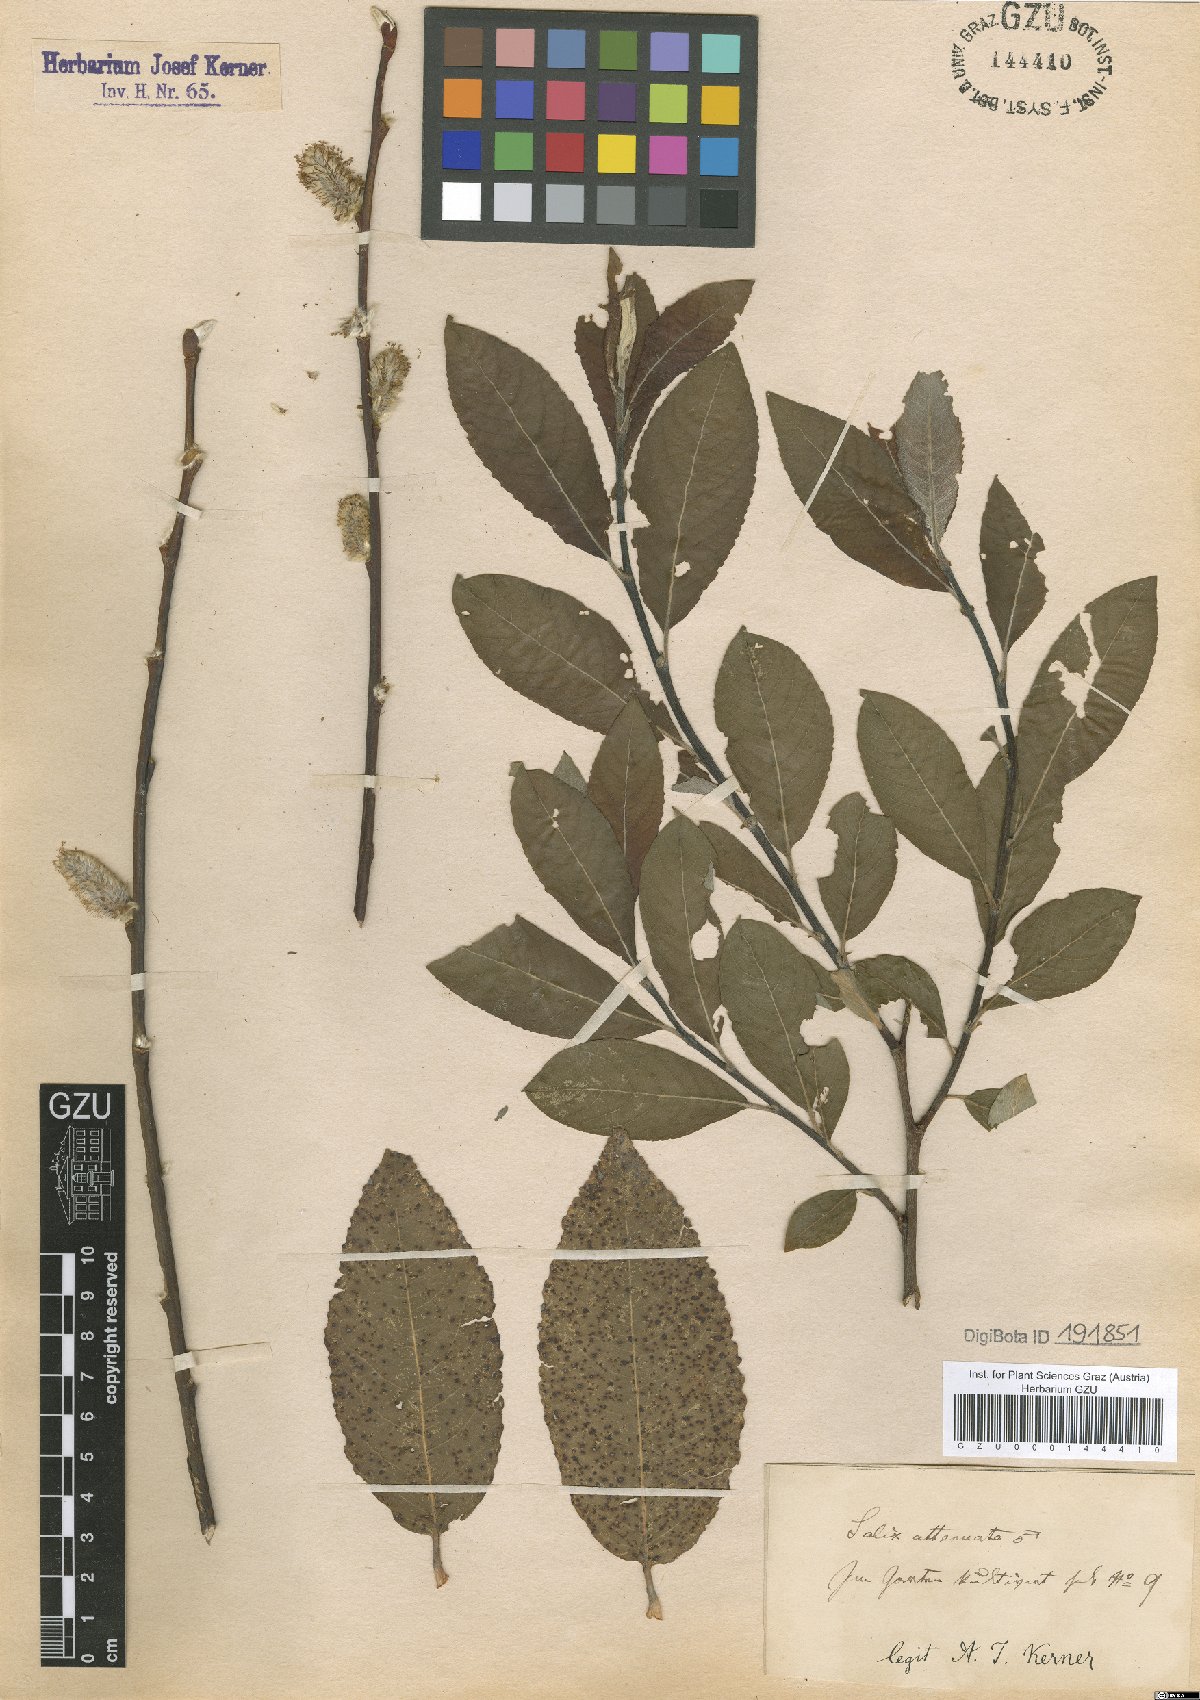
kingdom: Plantae
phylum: Tracheophyta
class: Magnoliopsida
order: Malpighiales
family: Salicaceae
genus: Salix
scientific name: Salix appendiculata
